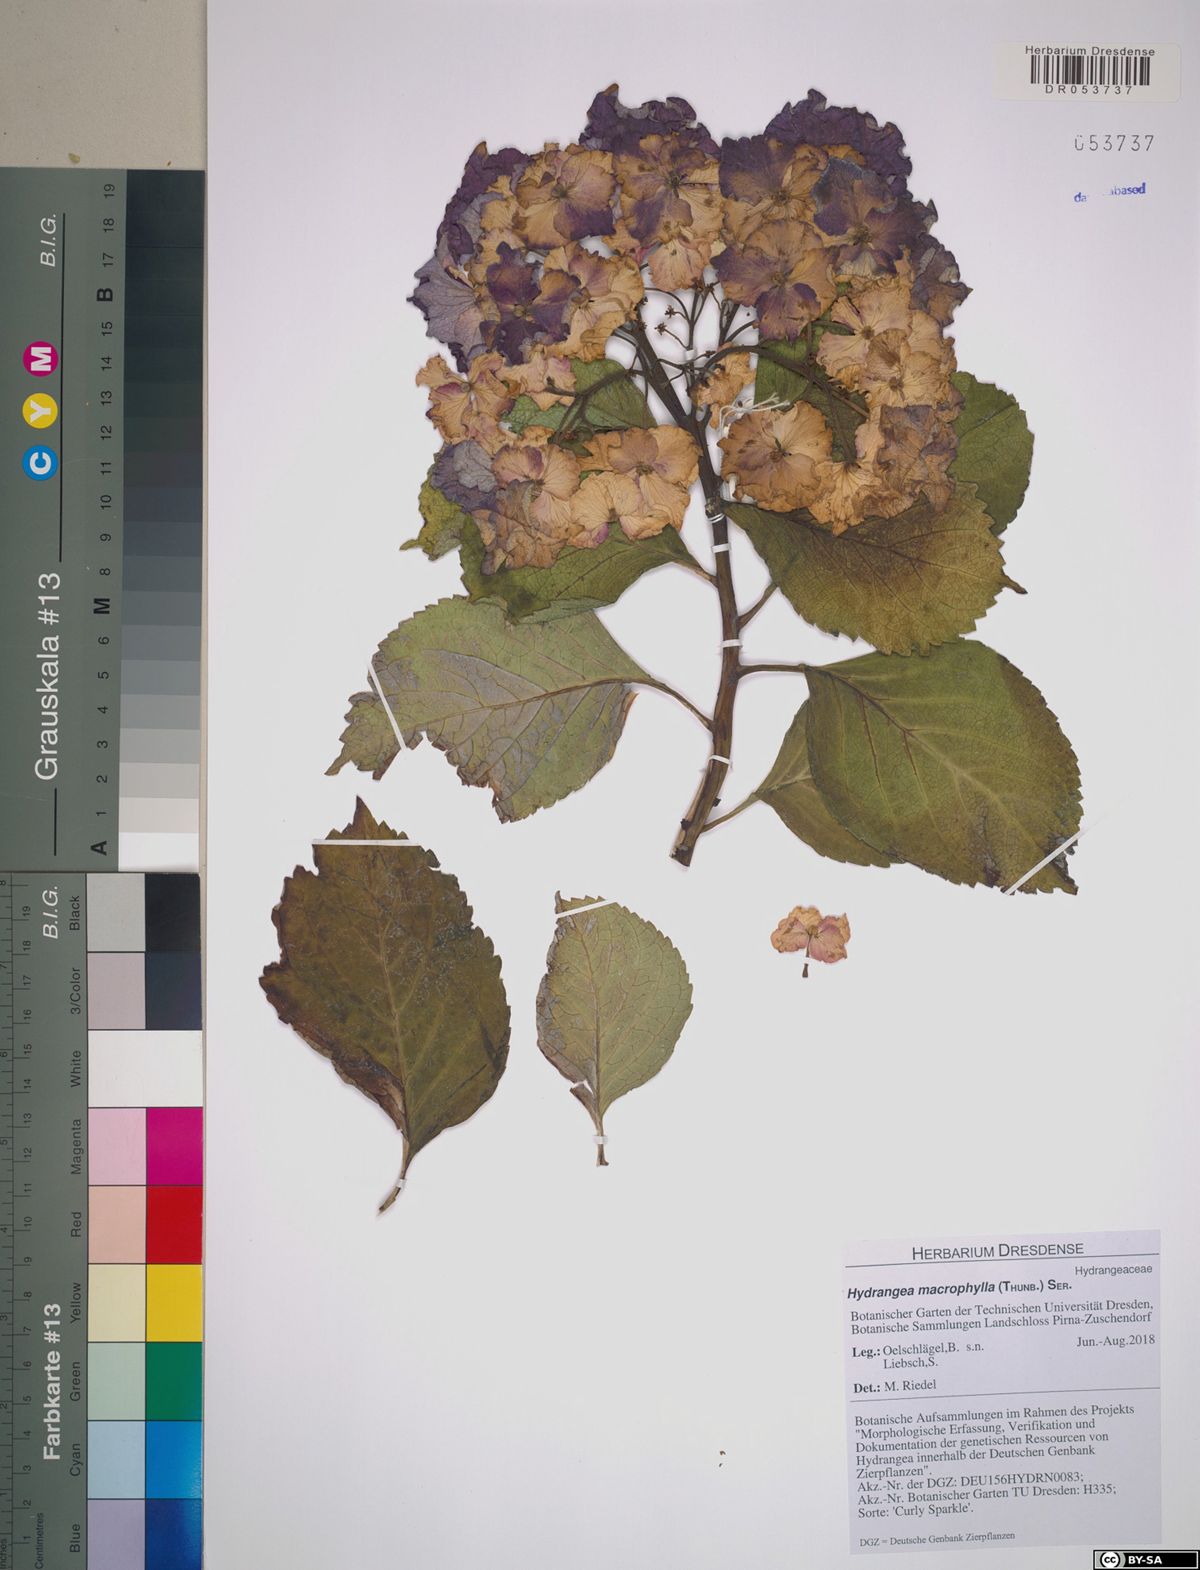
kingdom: Plantae
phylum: Tracheophyta
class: Magnoliopsida
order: Cornales
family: Hydrangeaceae
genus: Hydrangea
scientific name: Hydrangea macrophylla
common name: Hydrangea
